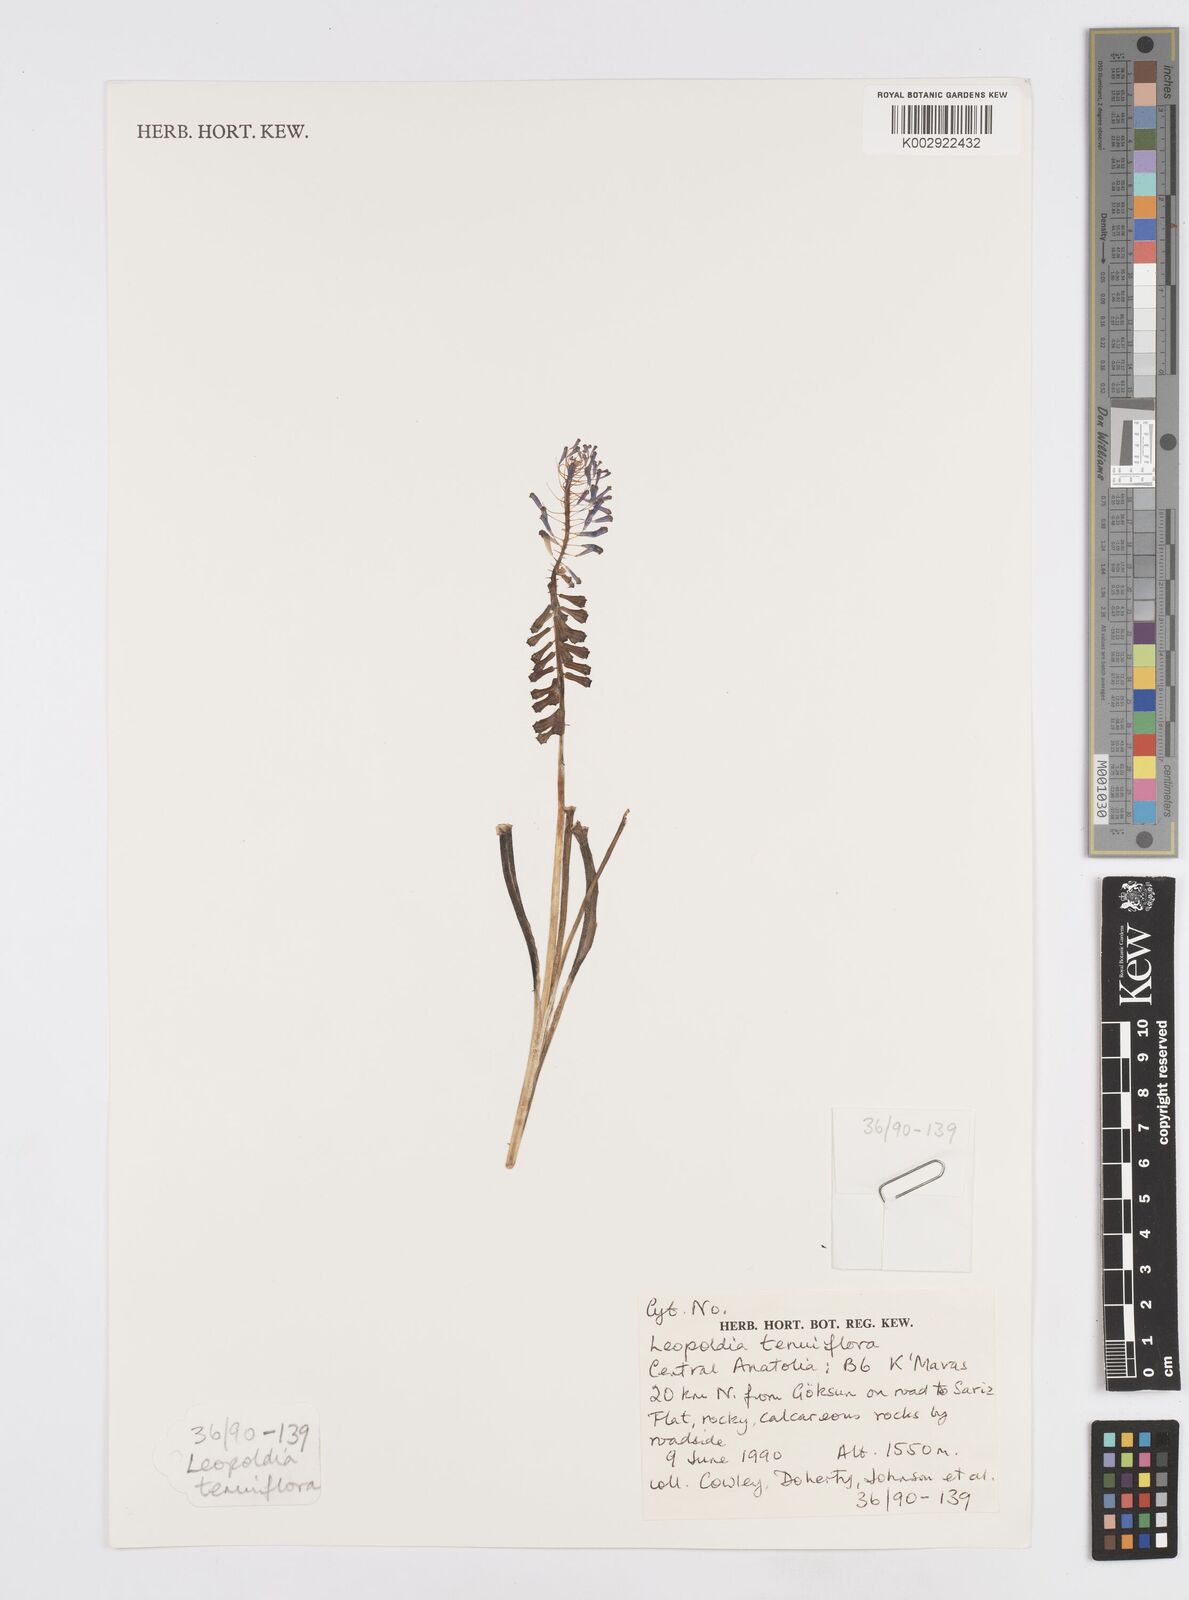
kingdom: Plantae
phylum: Tracheophyta
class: Liliopsida
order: Asparagales
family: Asparagaceae
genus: Muscari
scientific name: Muscari tenuiflorum
